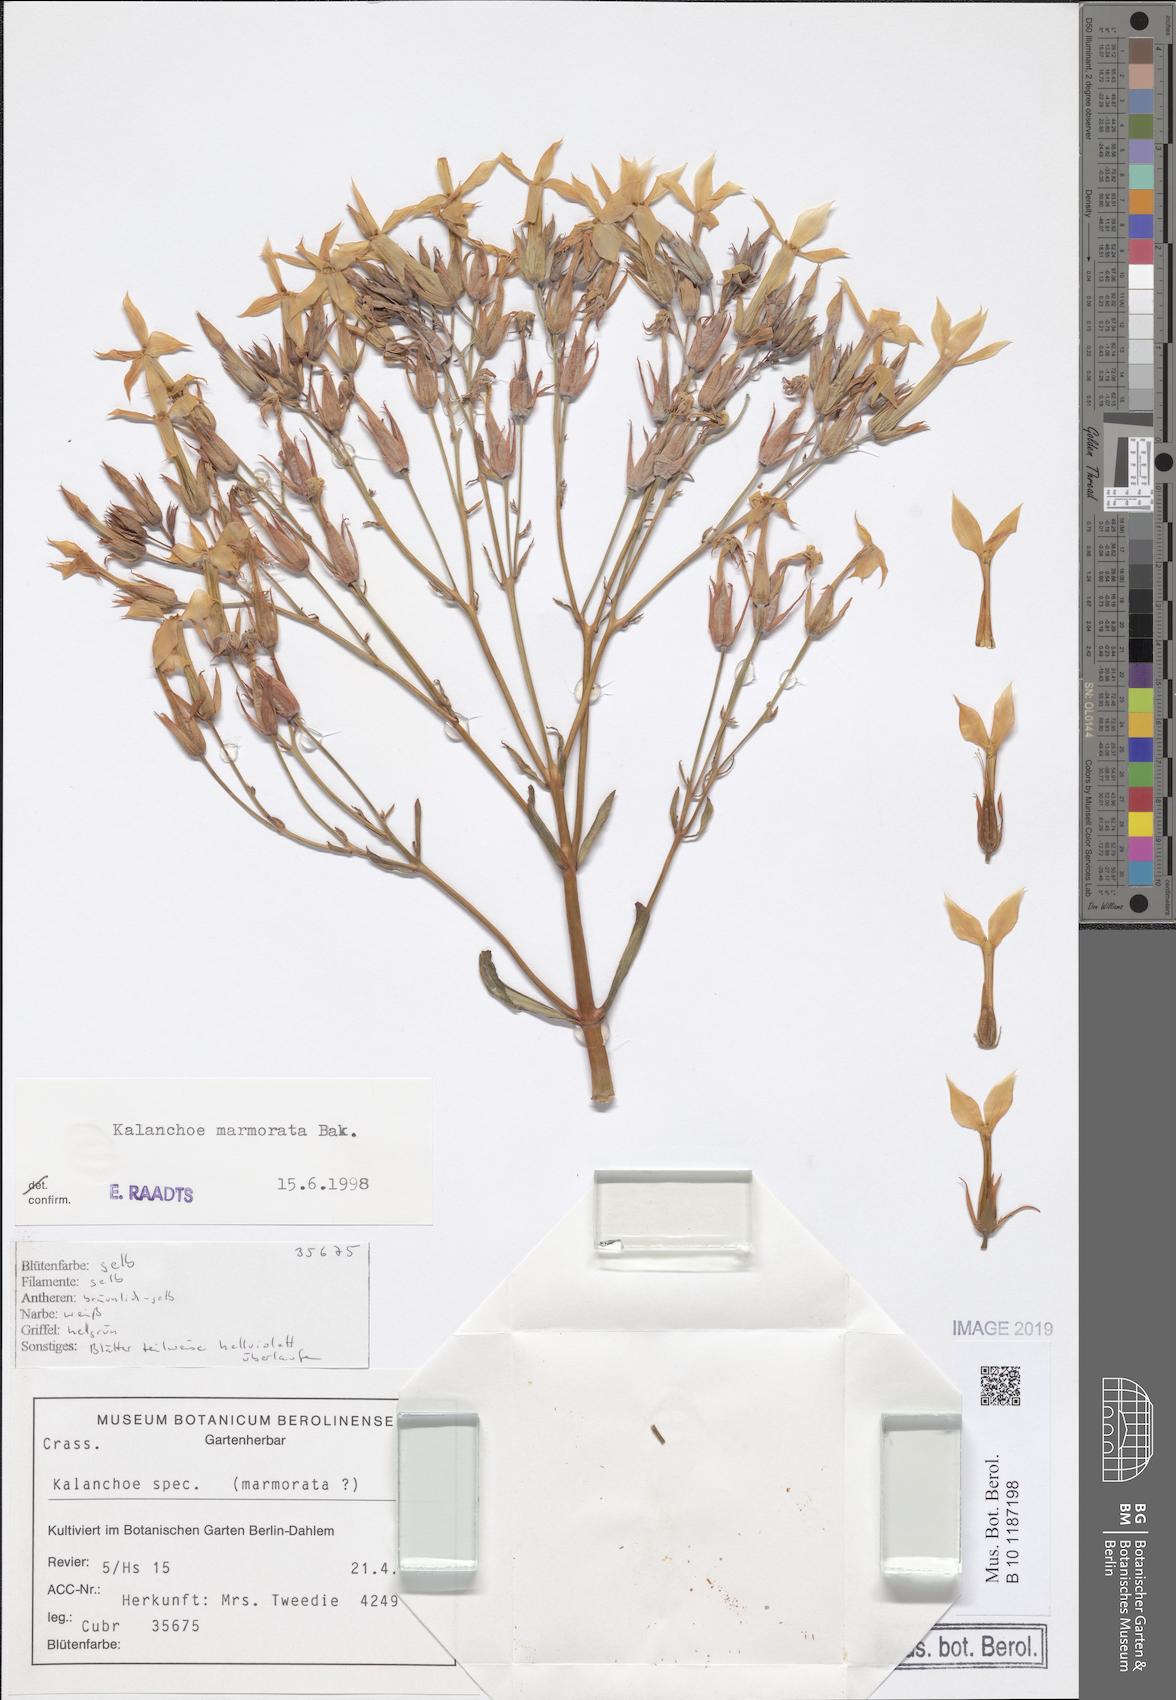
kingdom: Plantae
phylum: Tracheophyta
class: Magnoliopsida
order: Saxifragales
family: Crassulaceae
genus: Kalanchoe
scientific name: Kalanchoe marmorata
